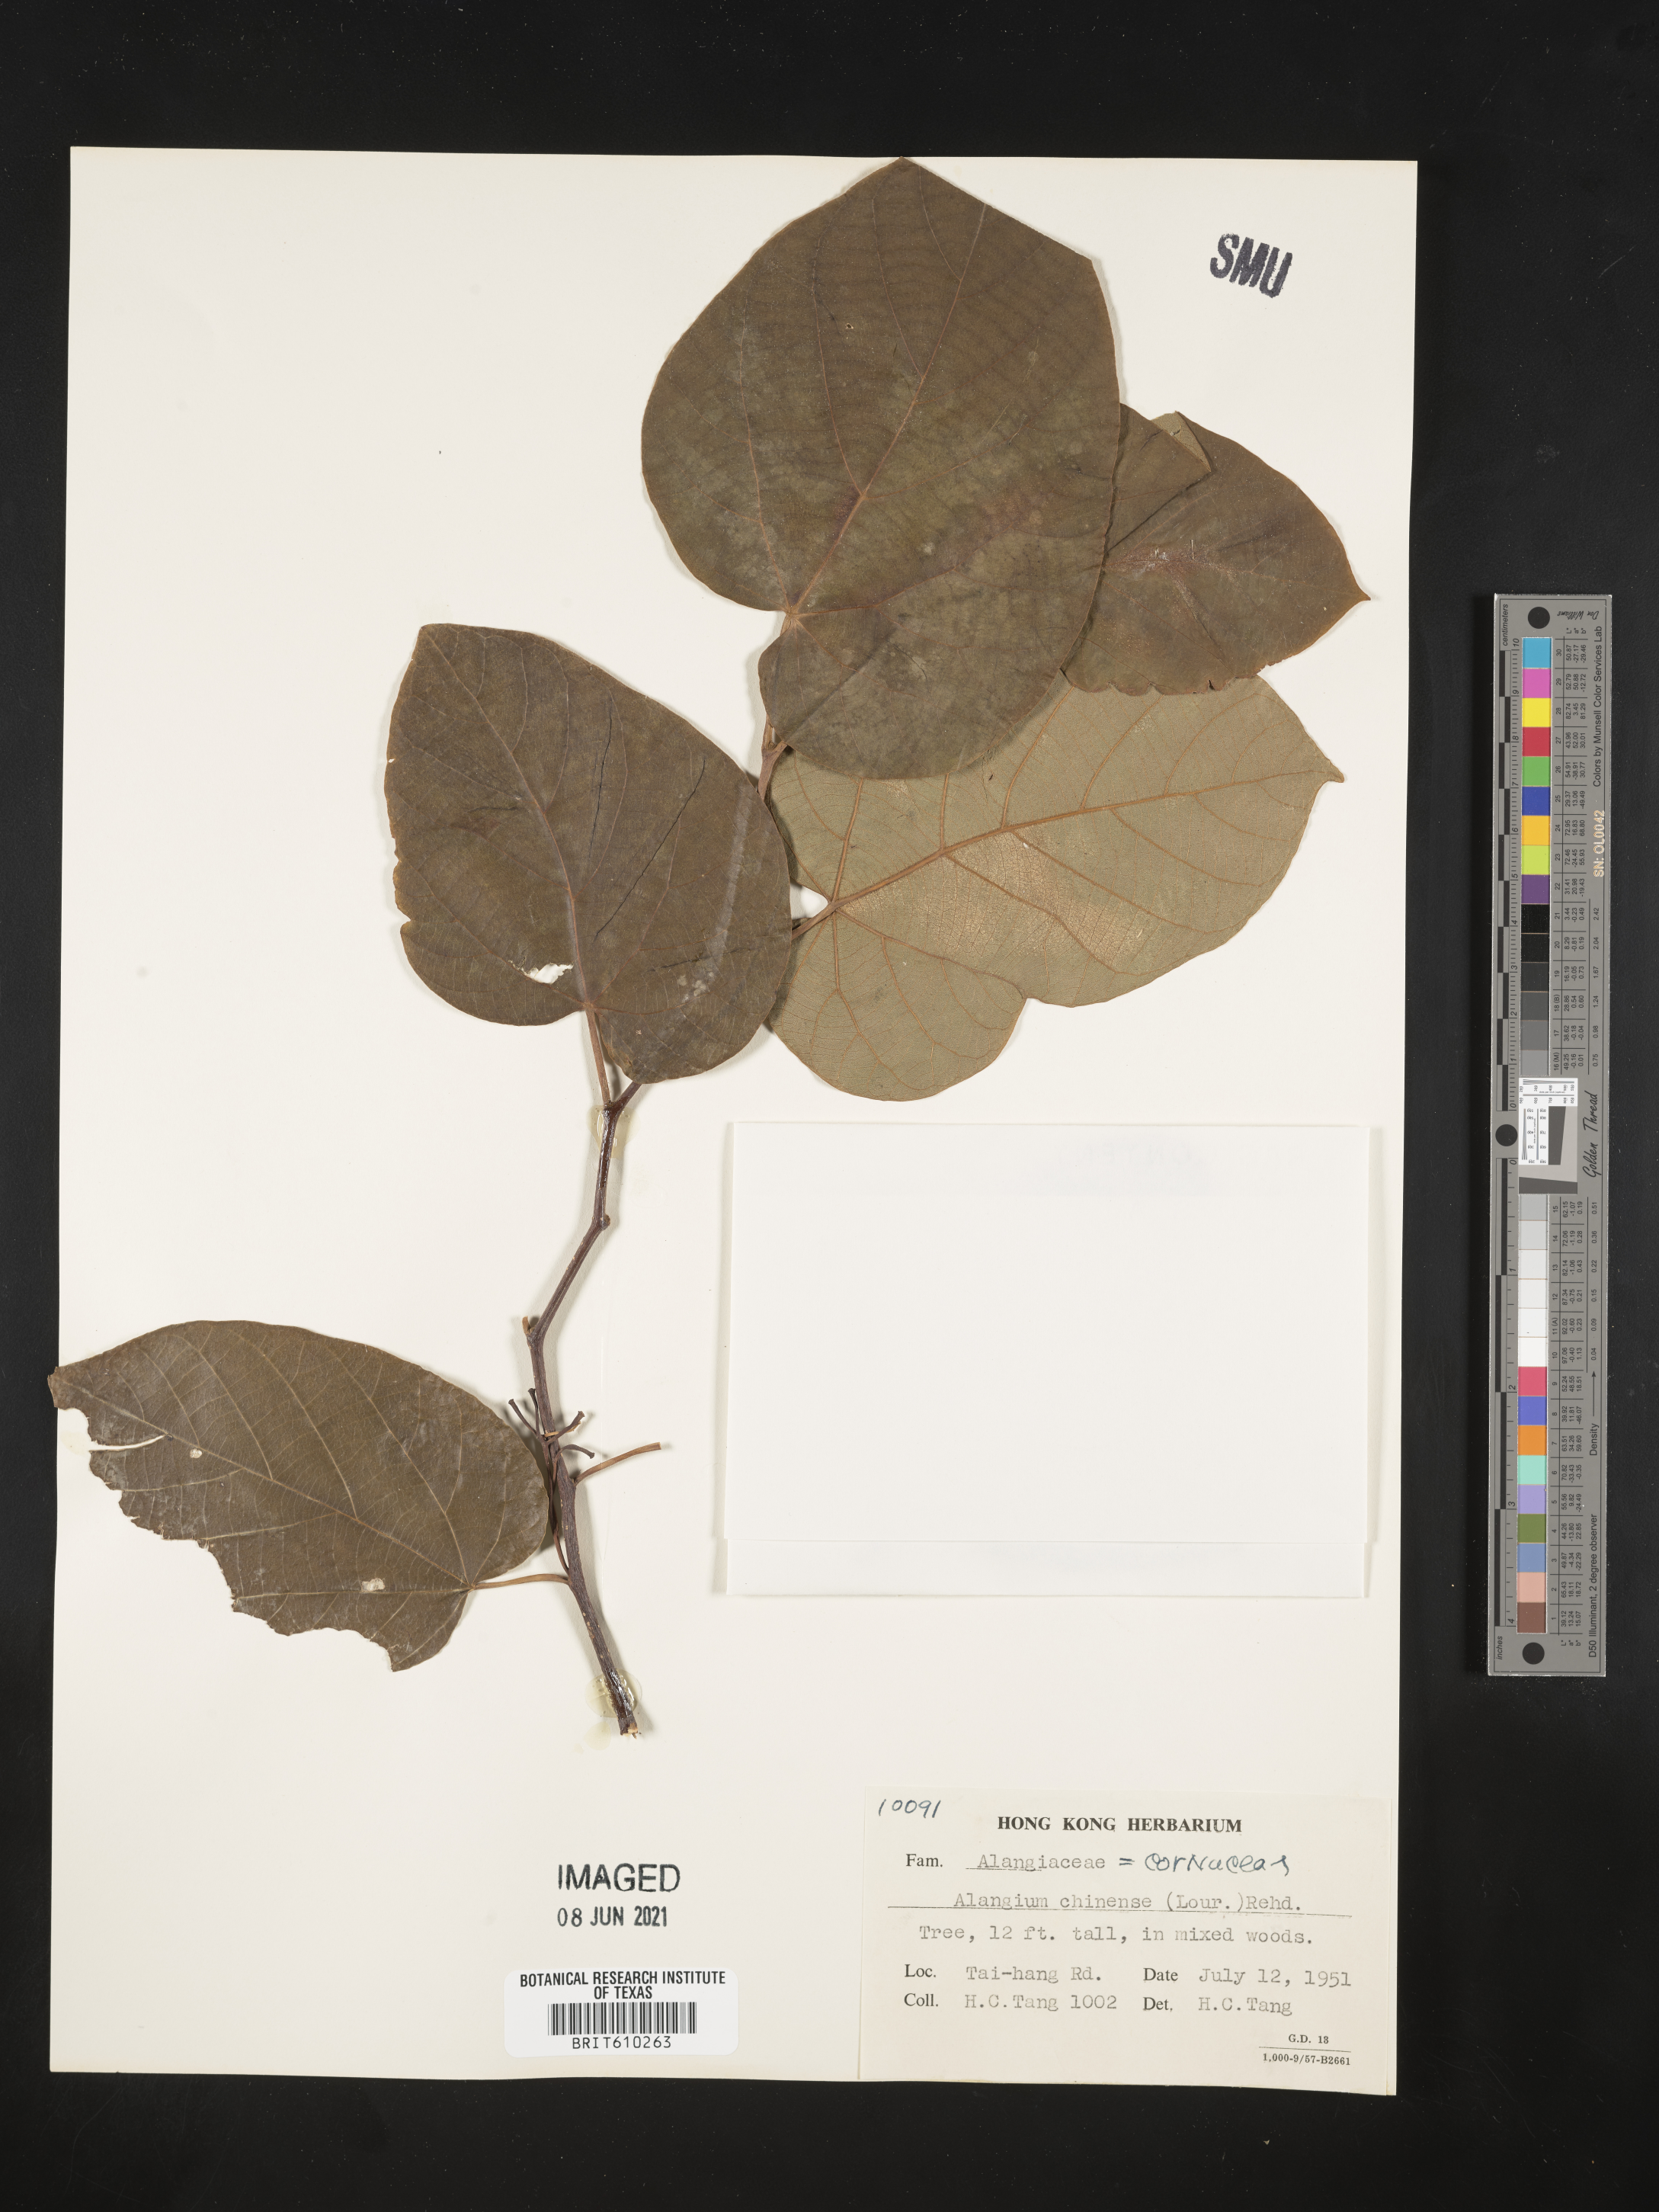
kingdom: Plantae
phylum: Tracheophyta
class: Magnoliopsida
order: Cornales
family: Cornaceae
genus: Alangium
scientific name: Alangium chinense
